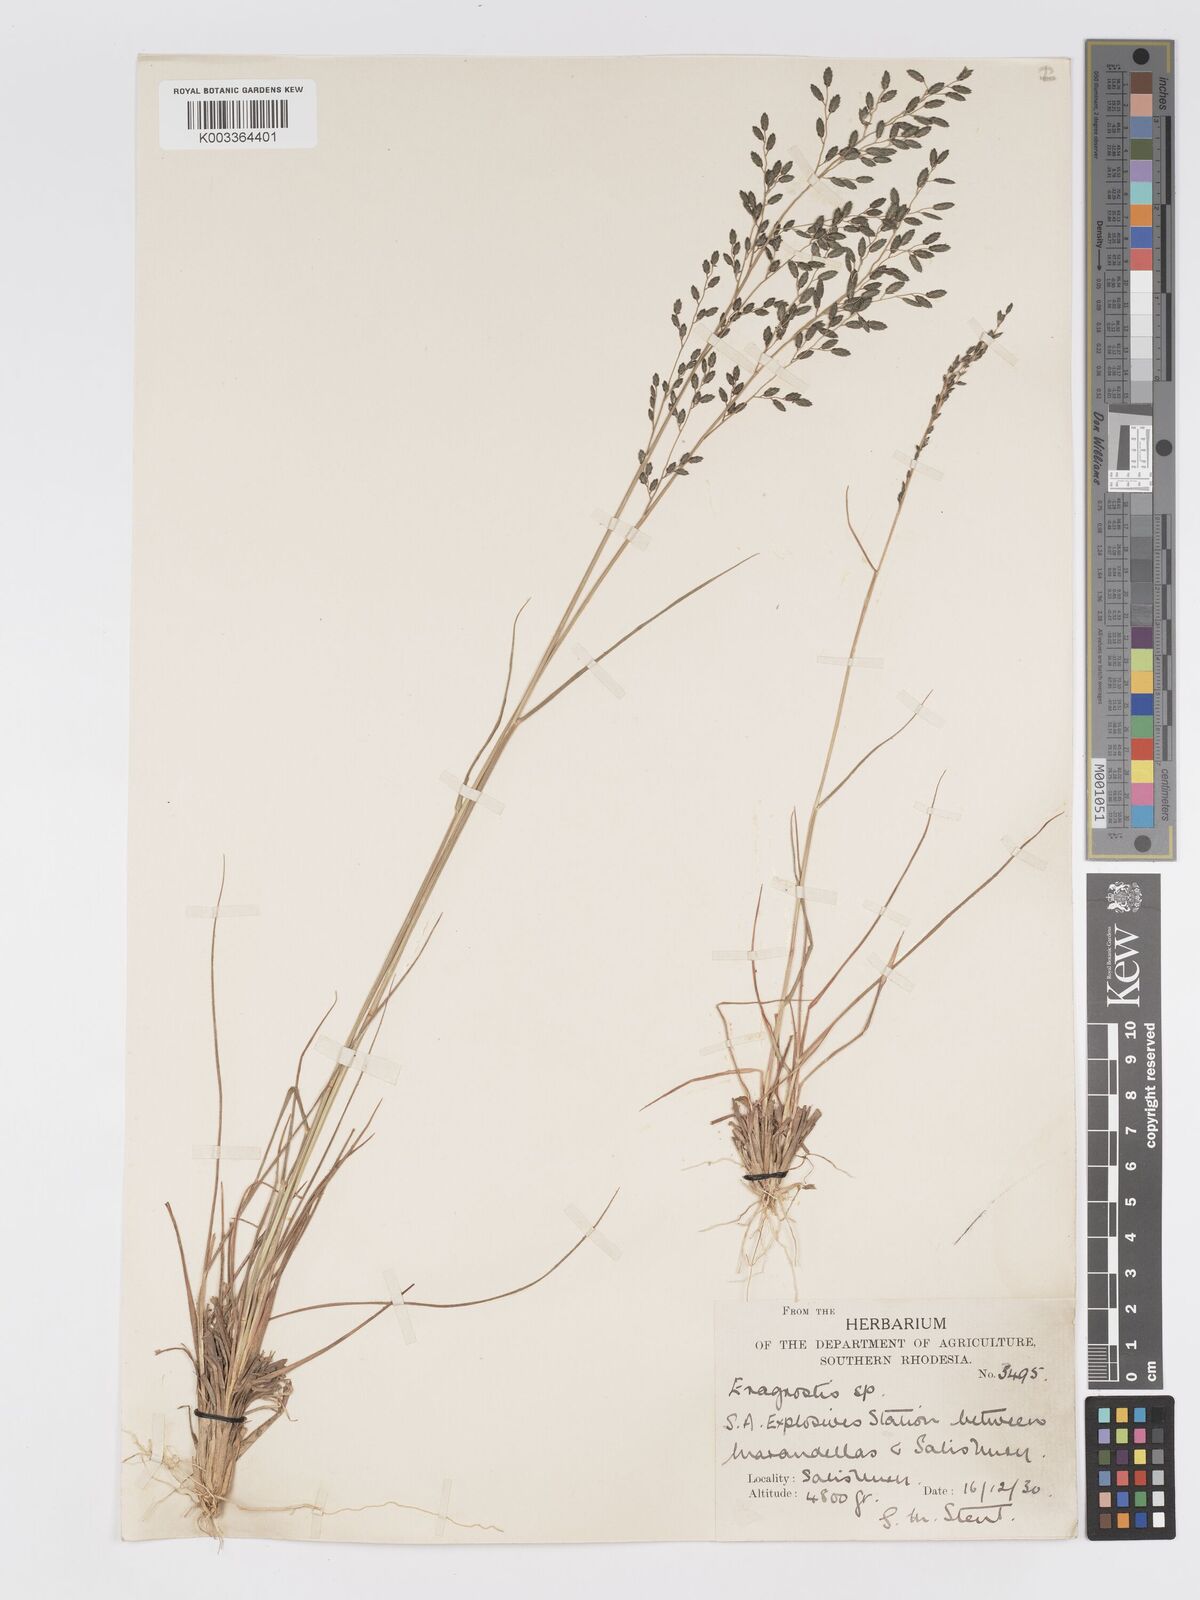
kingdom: Plantae
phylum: Tracheophyta
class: Liliopsida
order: Poales
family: Poaceae
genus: Eragrostis
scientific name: Eragrostis racemosa
